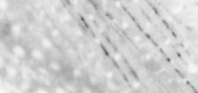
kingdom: Animalia
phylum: Chordata
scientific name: Chordata
